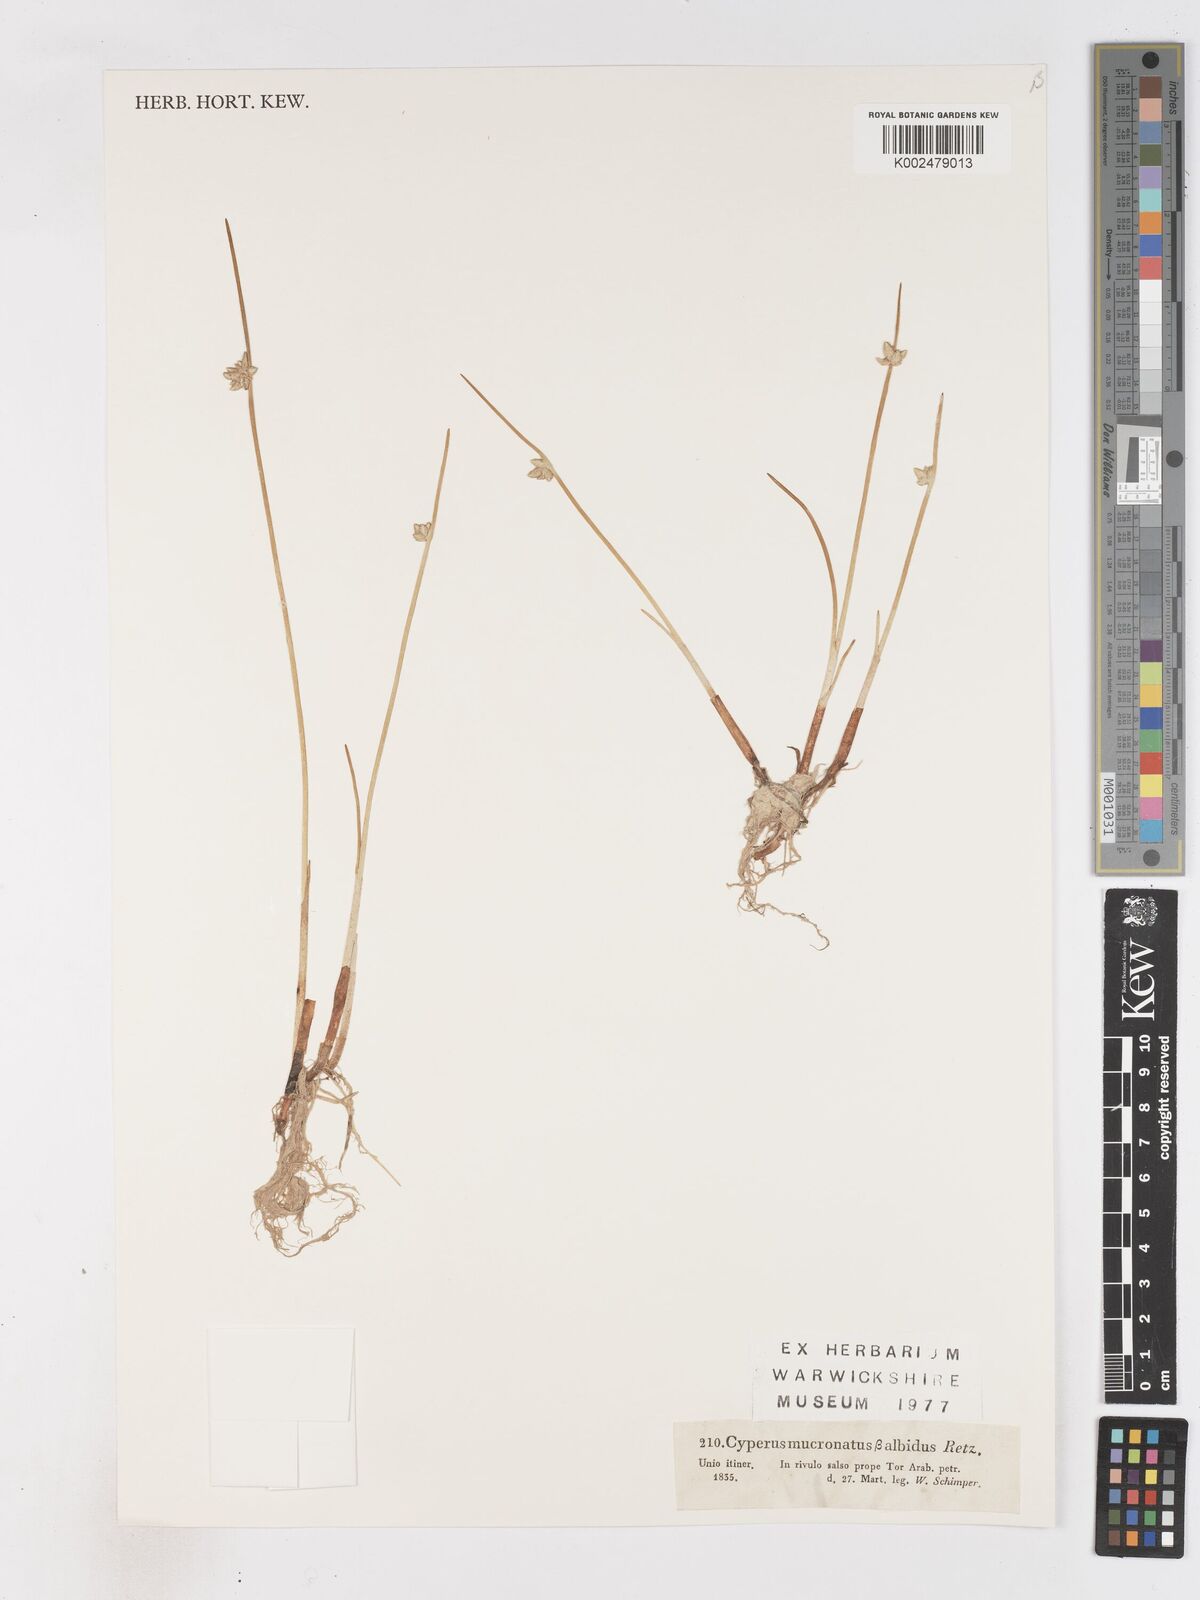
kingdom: Plantae
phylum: Tracheophyta
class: Liliopsida
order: Poales
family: Cyperaceae
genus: Cyperus
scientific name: Cyperus laevigatus
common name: Smooth flat sedge
